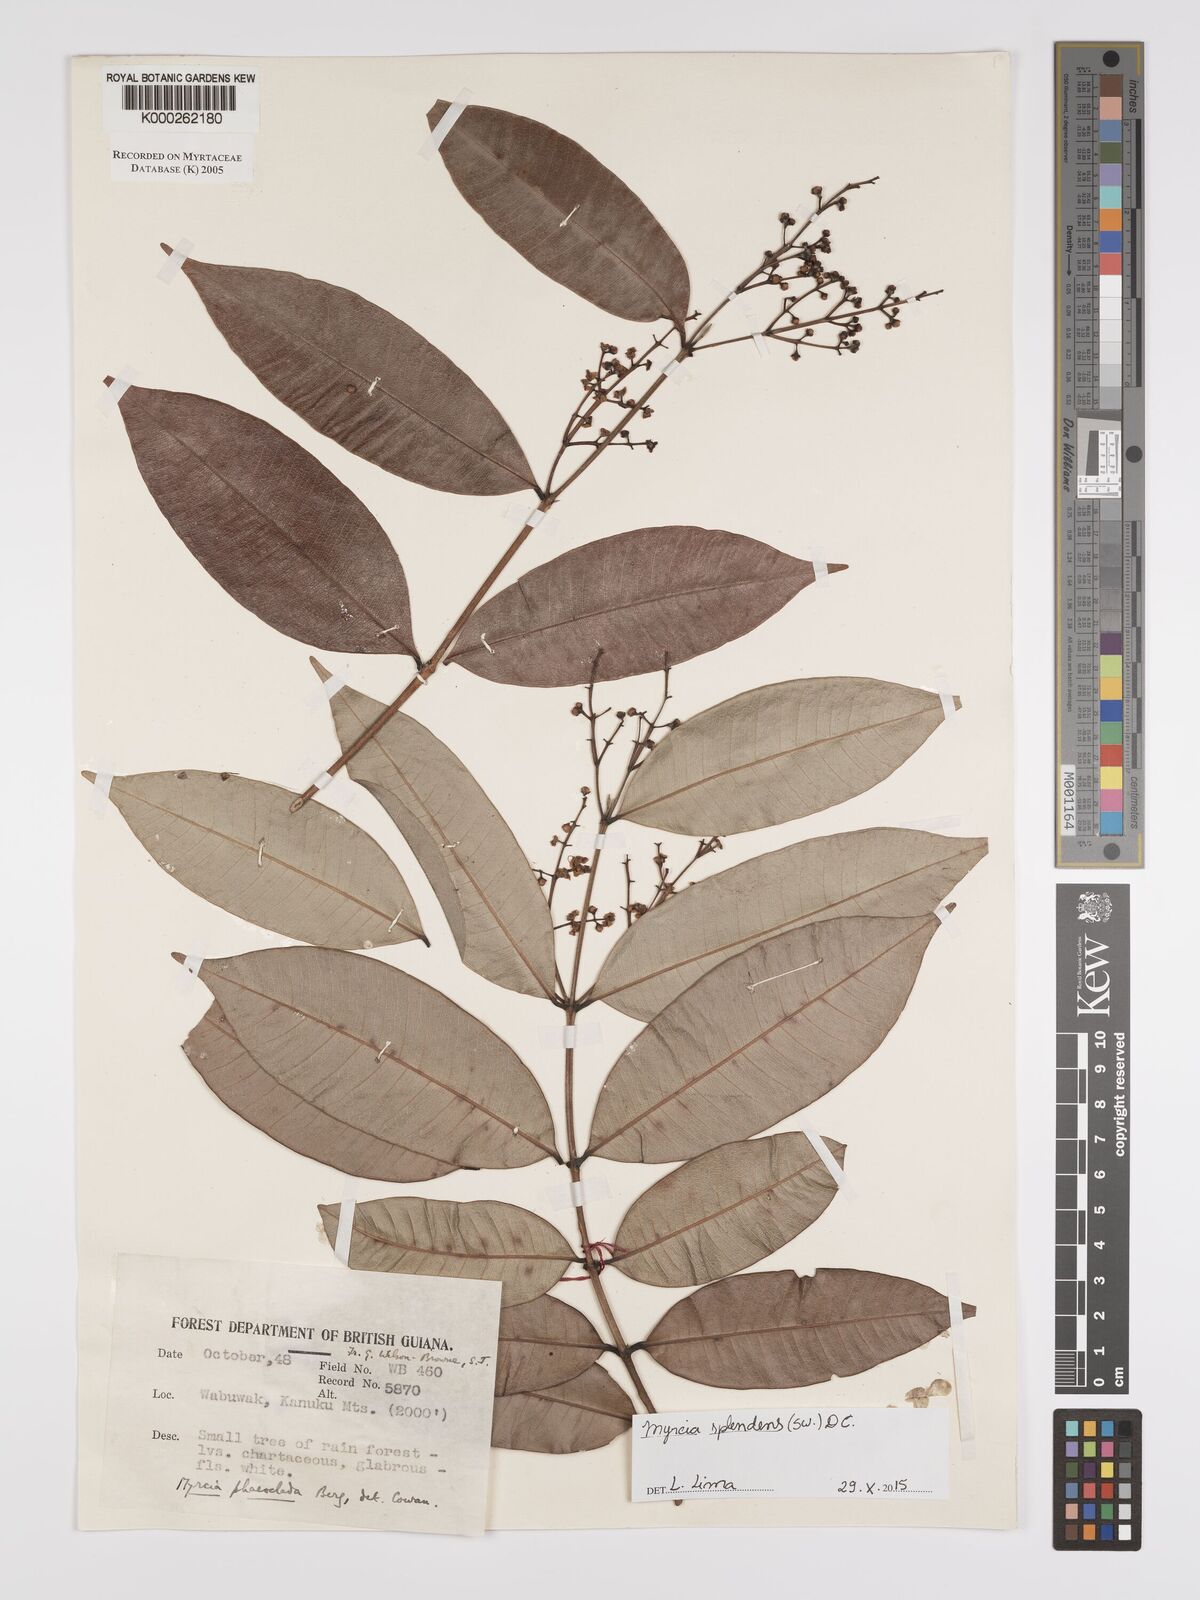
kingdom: Plantae
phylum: Tracheophyta
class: Magnoliopsida
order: Myrtales
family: Myrtaceae
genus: Myrcia
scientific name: Myrcia splendens
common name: Surinam cherry
